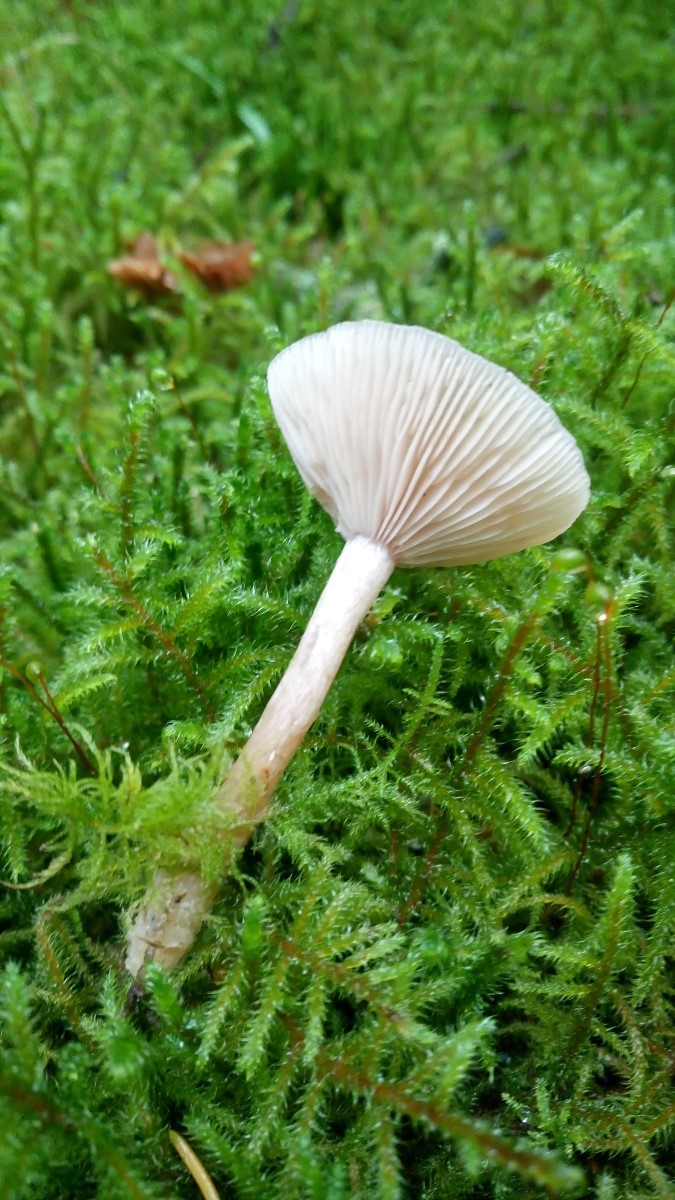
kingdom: Fungi
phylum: Basidiomycota
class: Agaricomycetes
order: Agaricales
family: Tricholomataceae
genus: Clitocybe
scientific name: Clitocybe fragrans
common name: vellugtende tragthat
